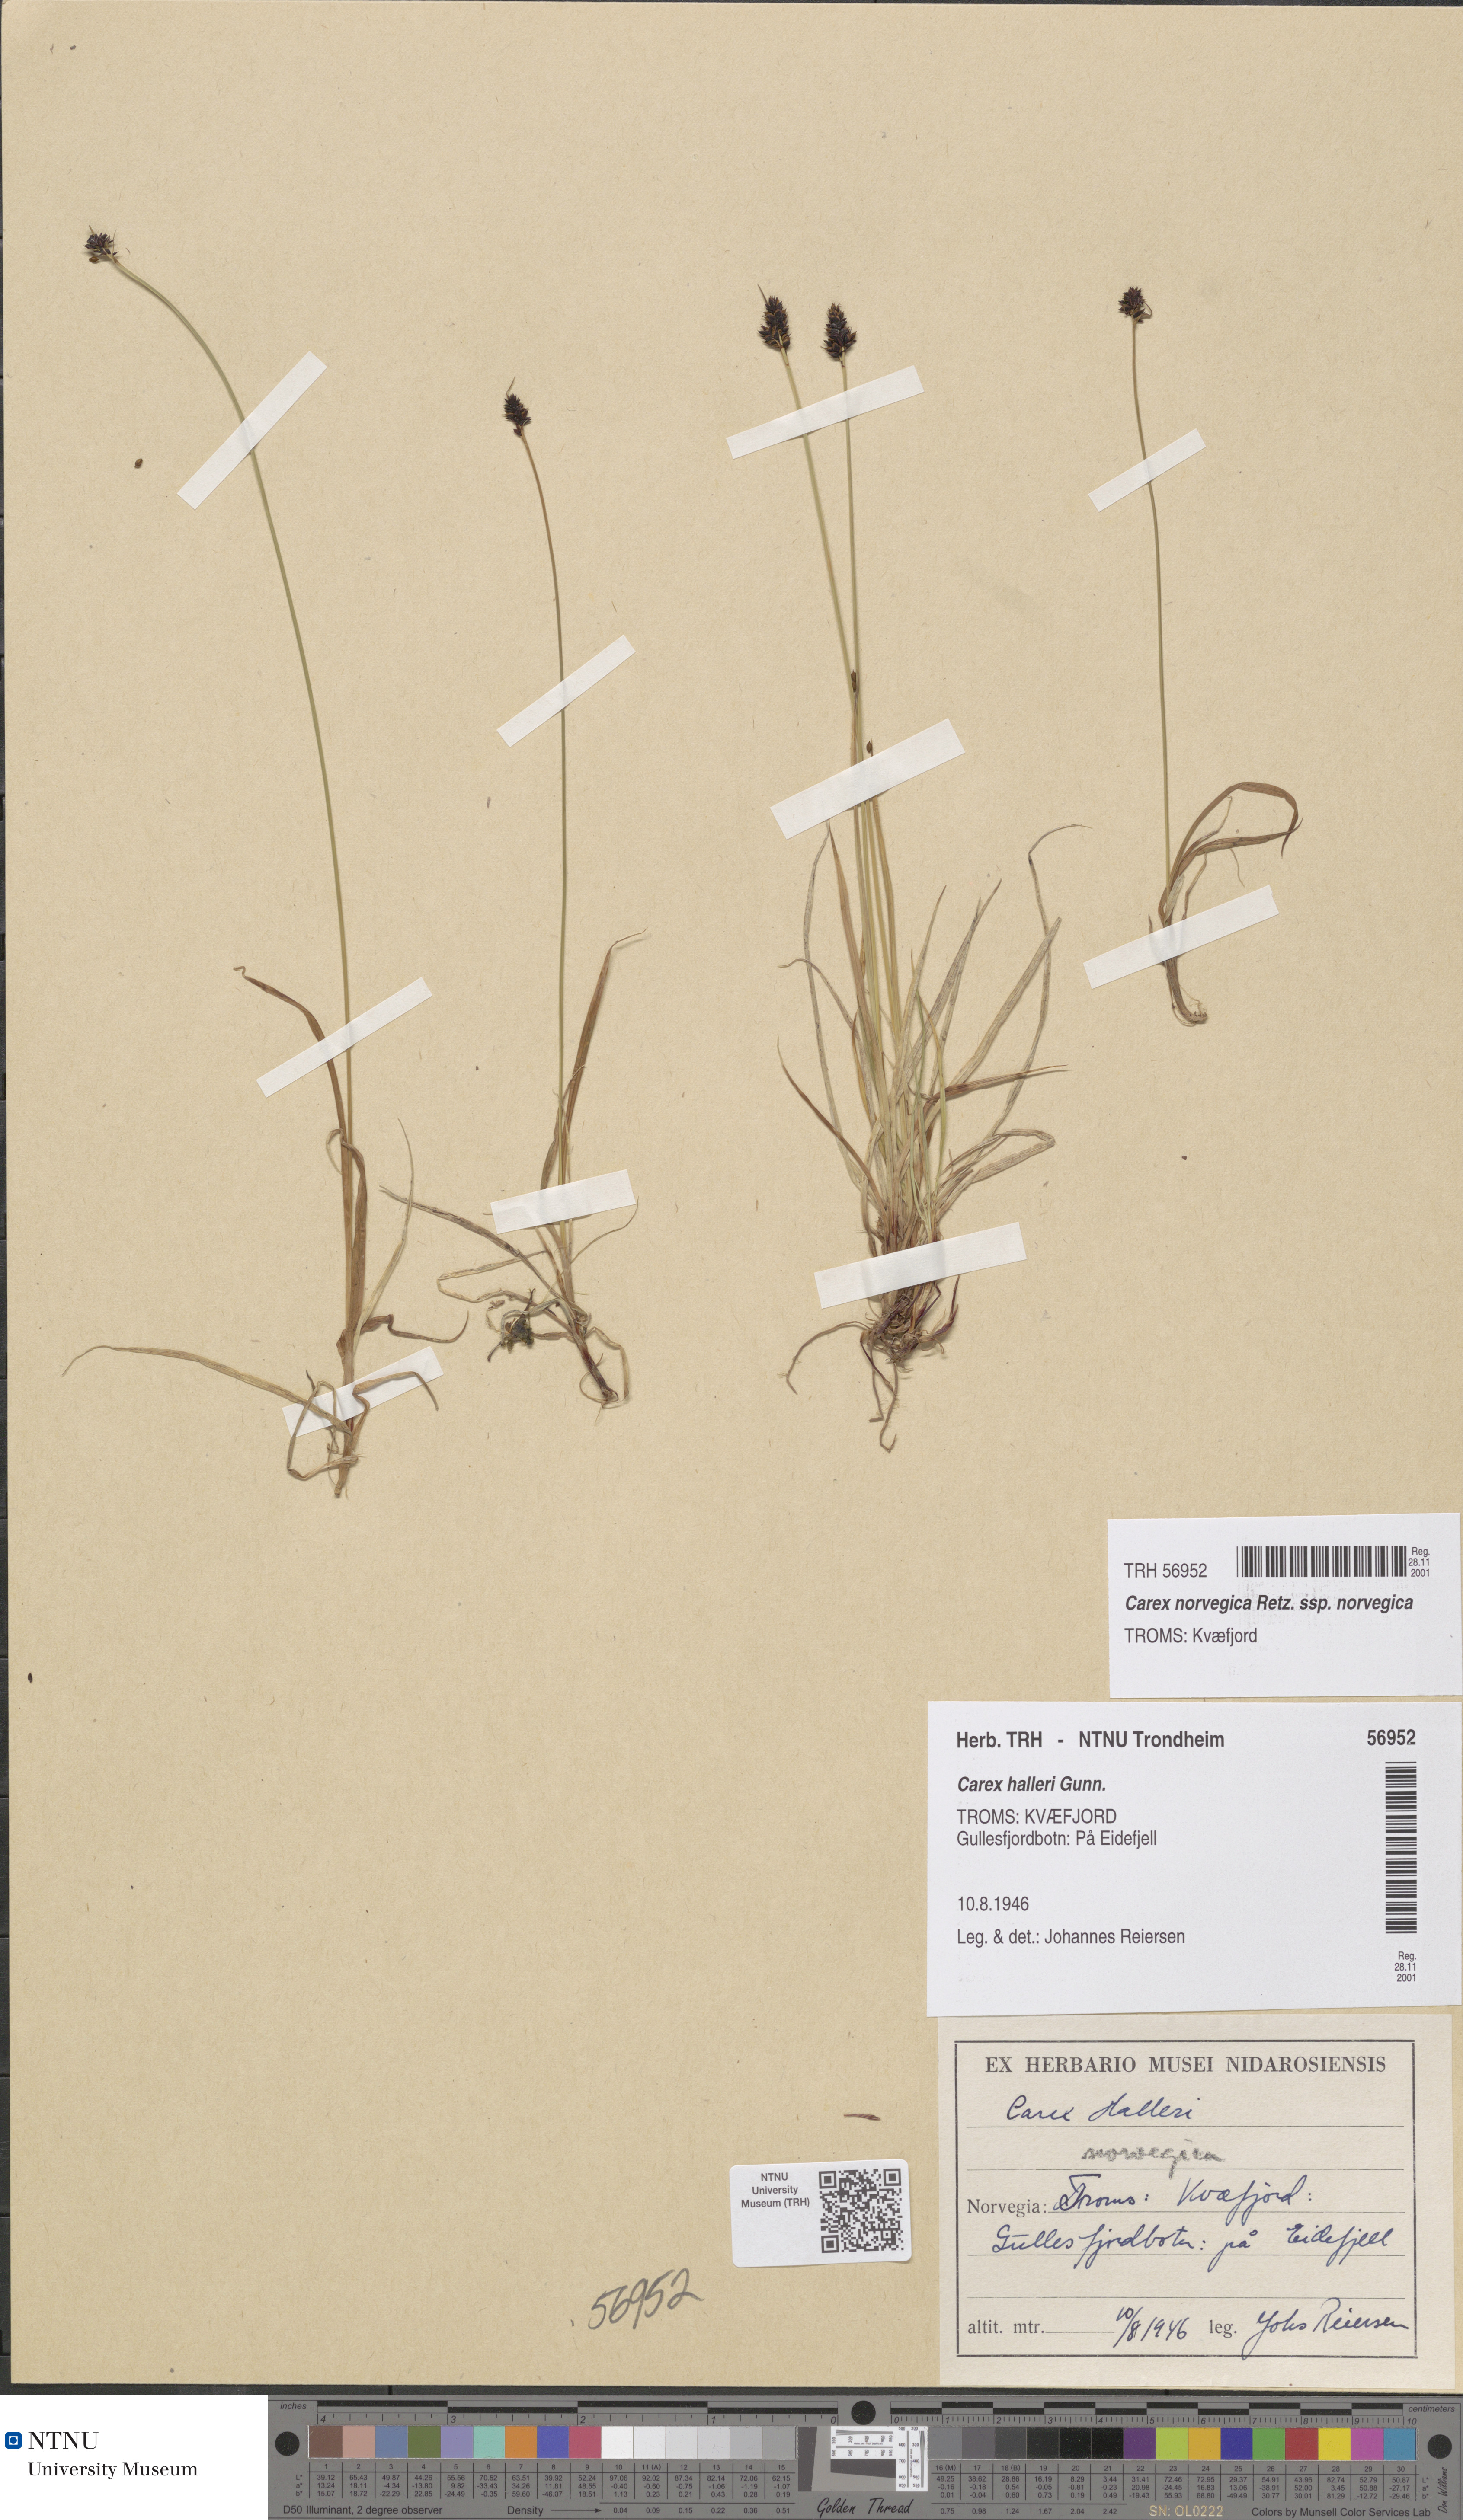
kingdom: Plantae
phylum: Tracheophyta
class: Liliopsida
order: Poales
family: Cyperaceae
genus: Carex
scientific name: Carex norvegica
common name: Close-headed alpine-sedge
